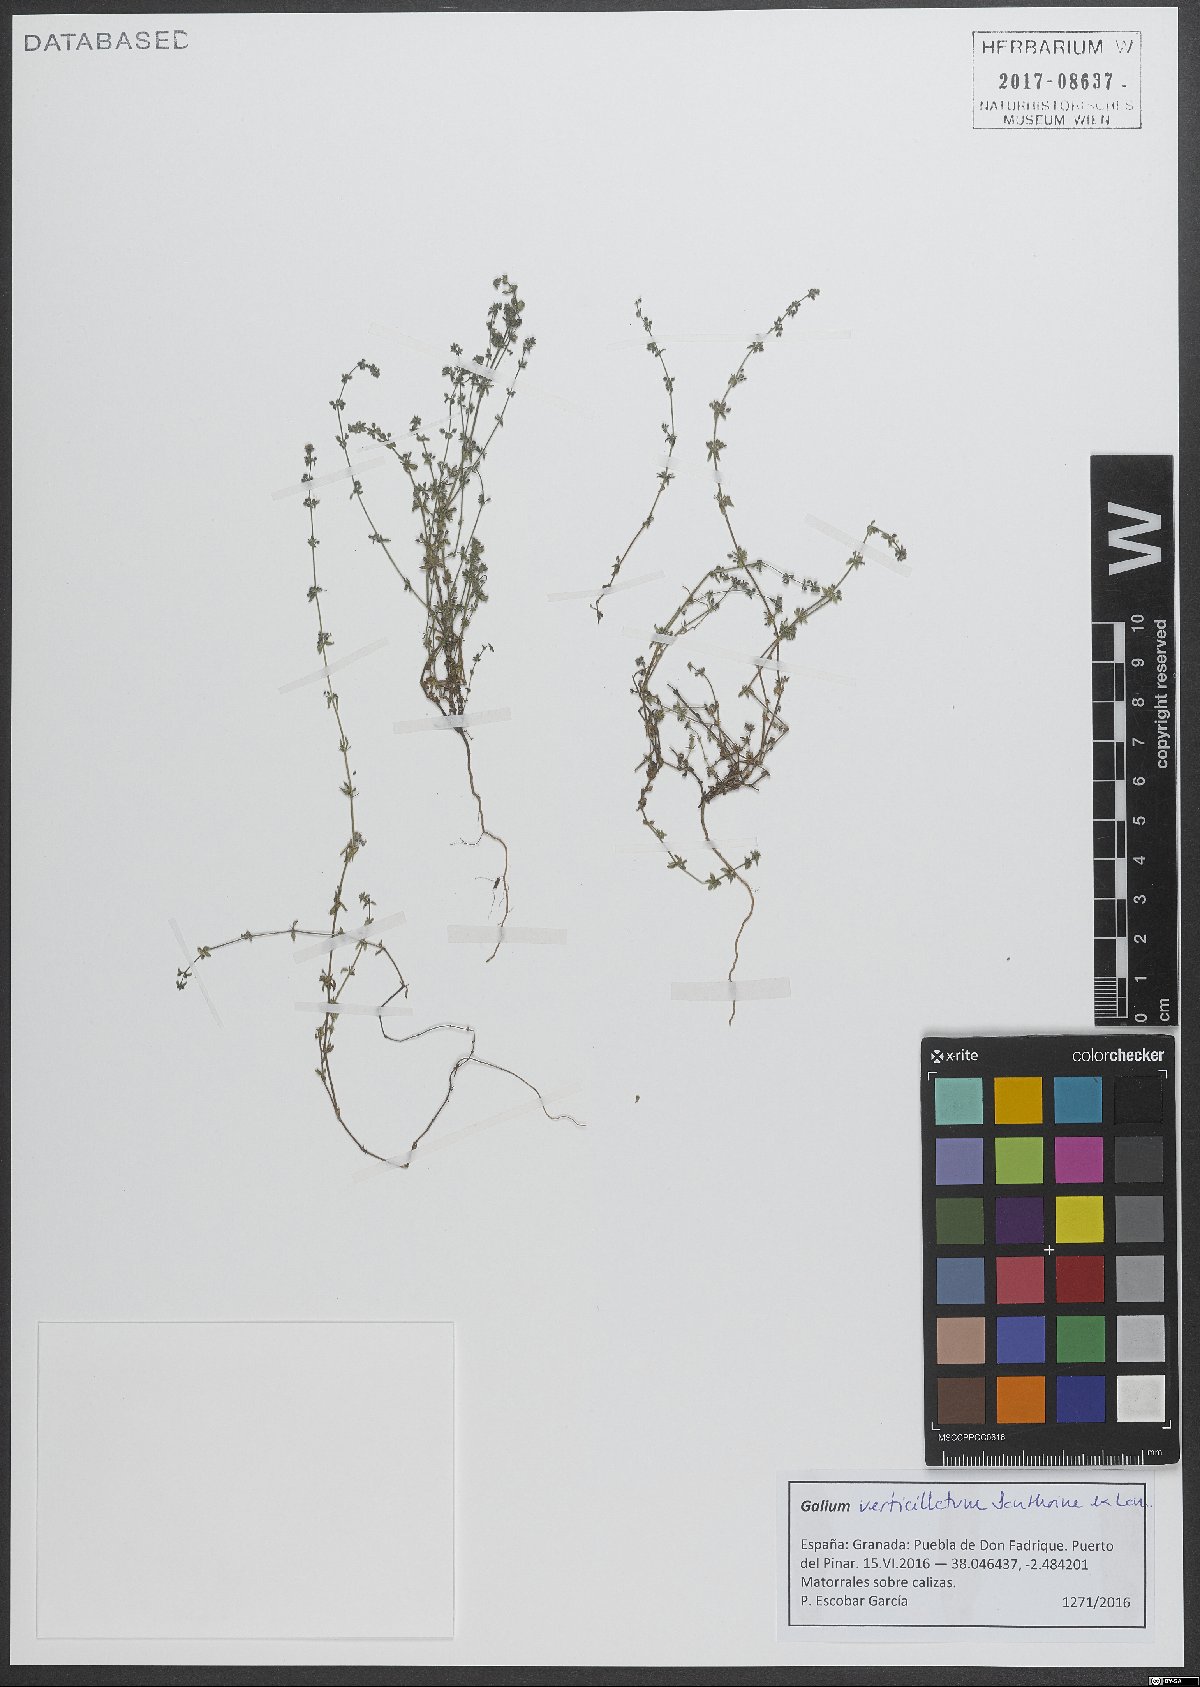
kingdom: Plantae
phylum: Tracheophyta
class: Magnoliopsida
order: Gentianales
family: Rubiaceae
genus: Galium
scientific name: Galium verticillatum
